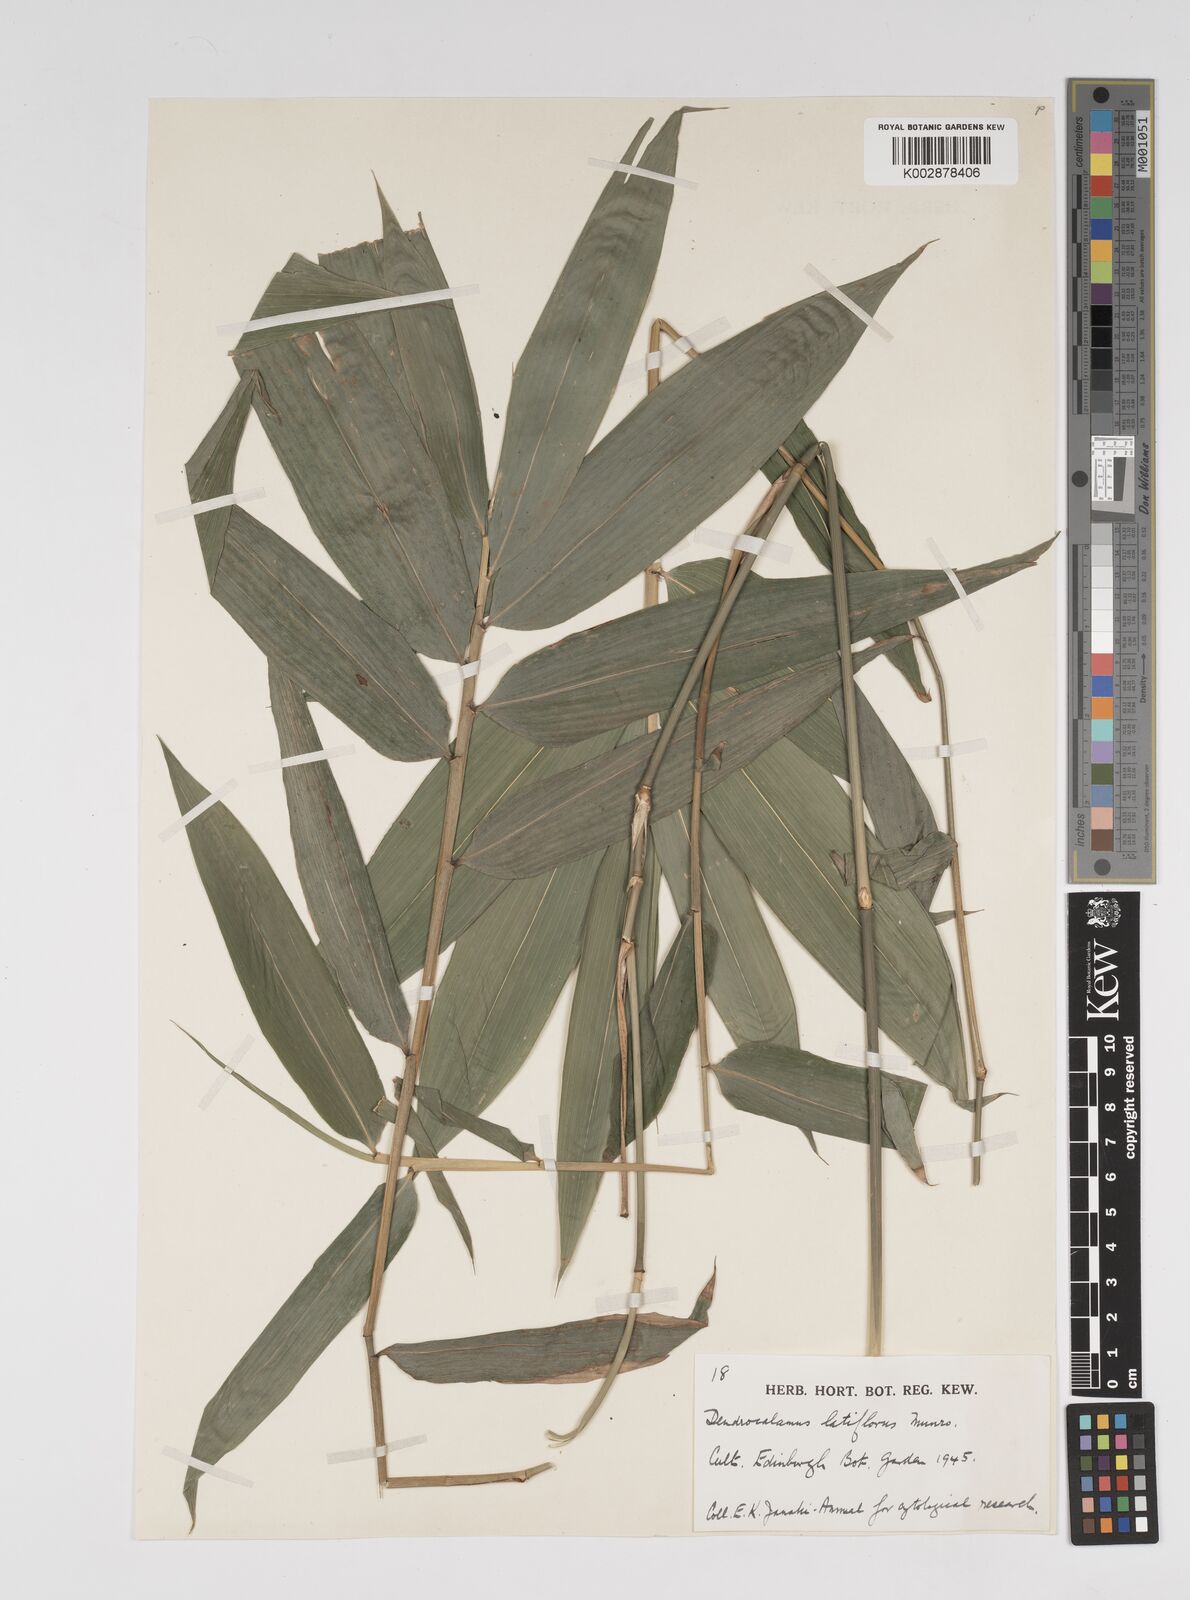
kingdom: Plantae
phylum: Tracheophyta
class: Liliopsida
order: Poales
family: Poaceae
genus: Dendrocalamus
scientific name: Dendrocalamus latiflorus
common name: Giant bamboo
